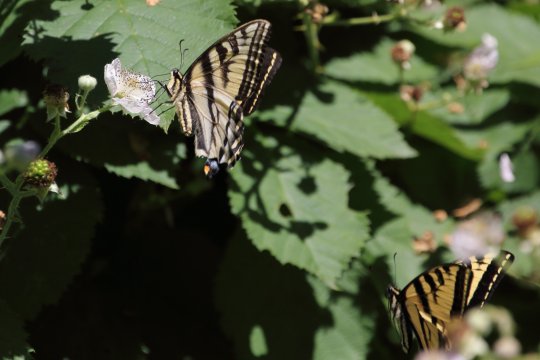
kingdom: Animalia
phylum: Arthropoda
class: Insecta
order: Lepidoptera
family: Papilionidae
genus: Pterourus
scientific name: Pterourus rutulus
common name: Western Tiger Swallowtail
